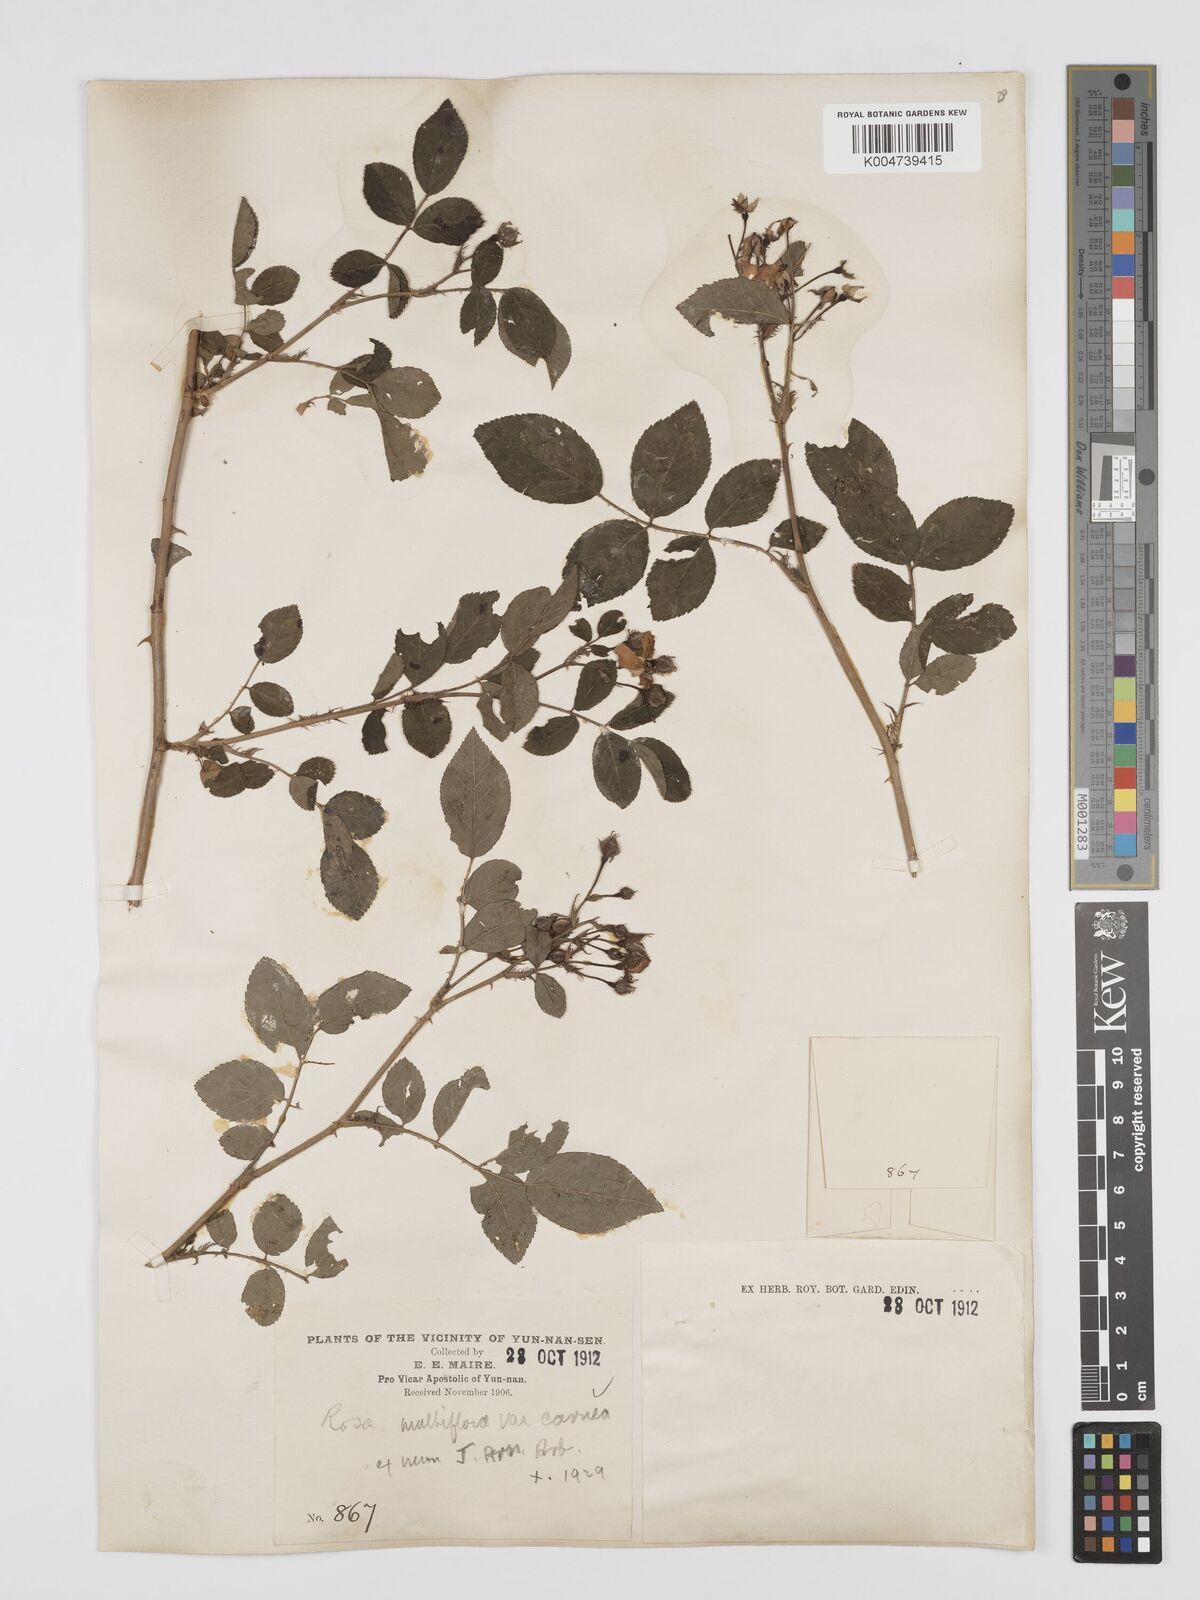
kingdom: Plantae
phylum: Tracheophyta
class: Magnoliopsida
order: Rosales
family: Rosaceae
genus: Rosa
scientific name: Rosa multiflora
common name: Multiflora rose
